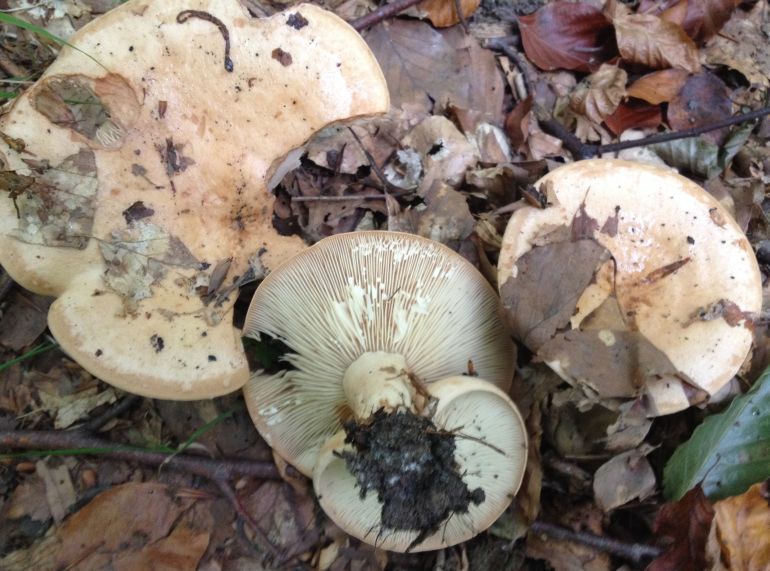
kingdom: Fungi
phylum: Basidiomycota
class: Agaricomycetes
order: Russulales
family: Russulaceae
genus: Lactarius
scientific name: Lactarius pallidus
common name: bleg mælkehat
